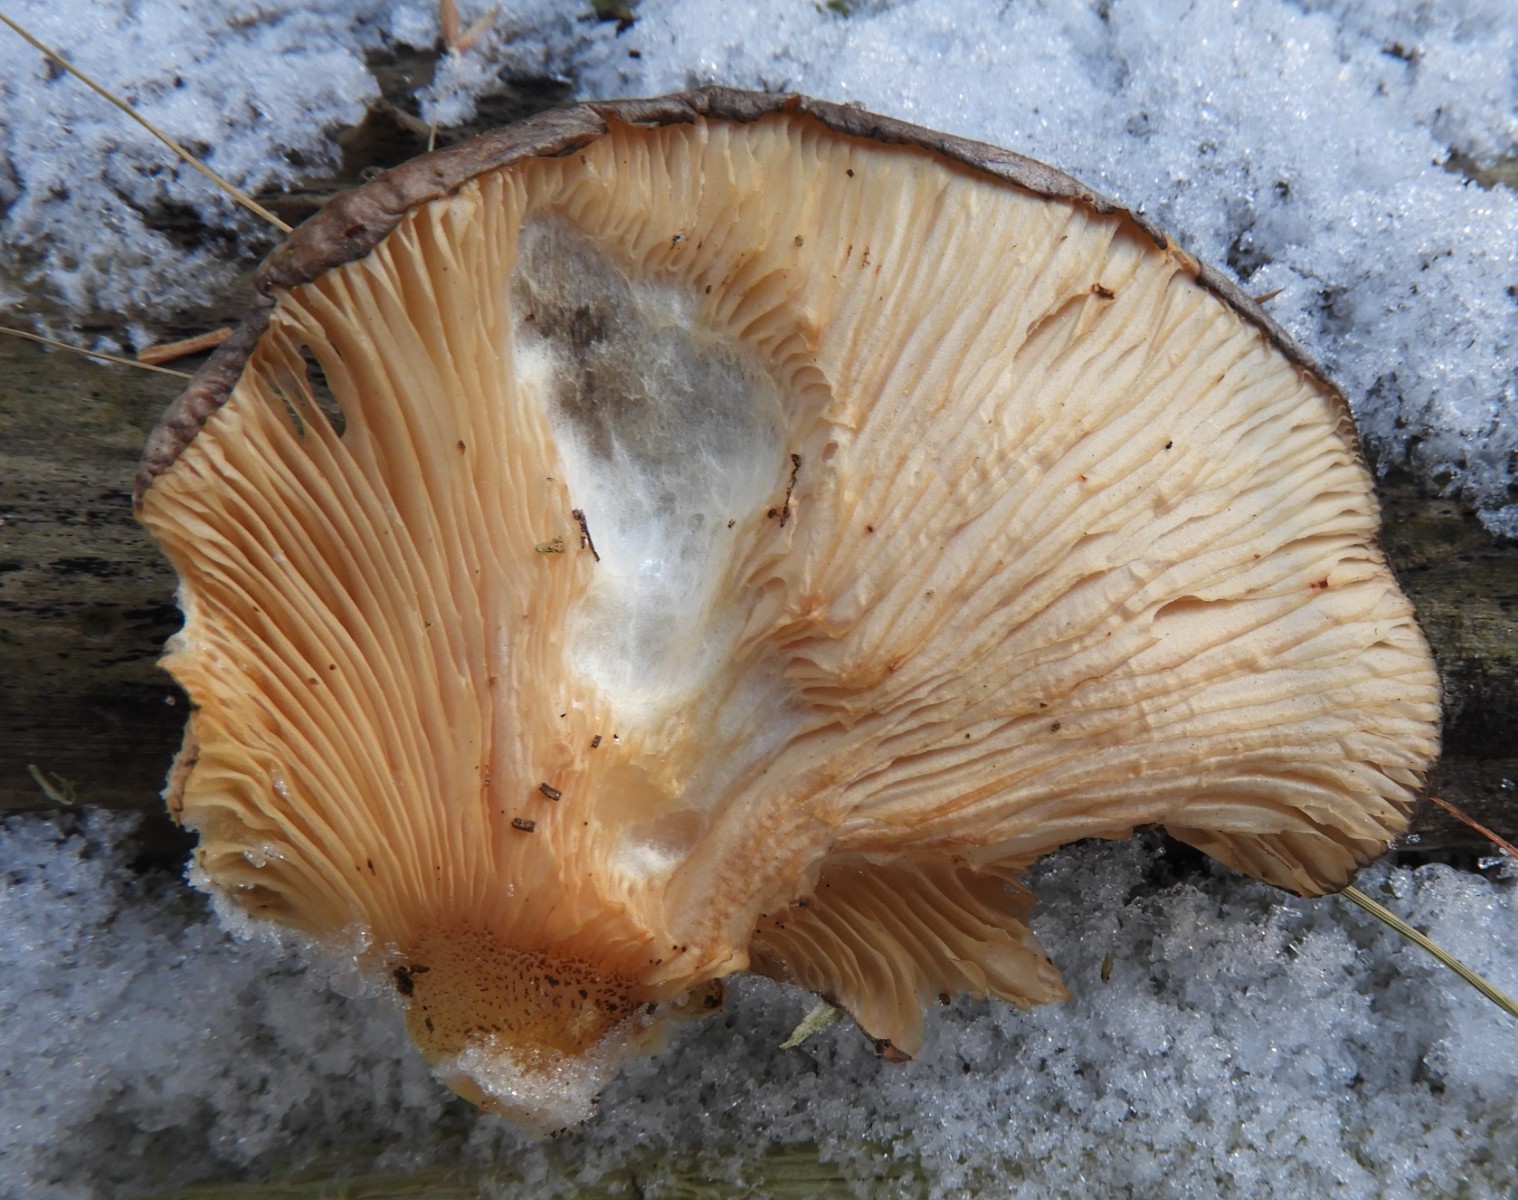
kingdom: Fungi
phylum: Basidiomycota
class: Agaricomycetes
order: Agaricales
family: Sarcomyxaceae
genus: Sarcomyxa
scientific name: Sarcomyxa serotina
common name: gummihat
